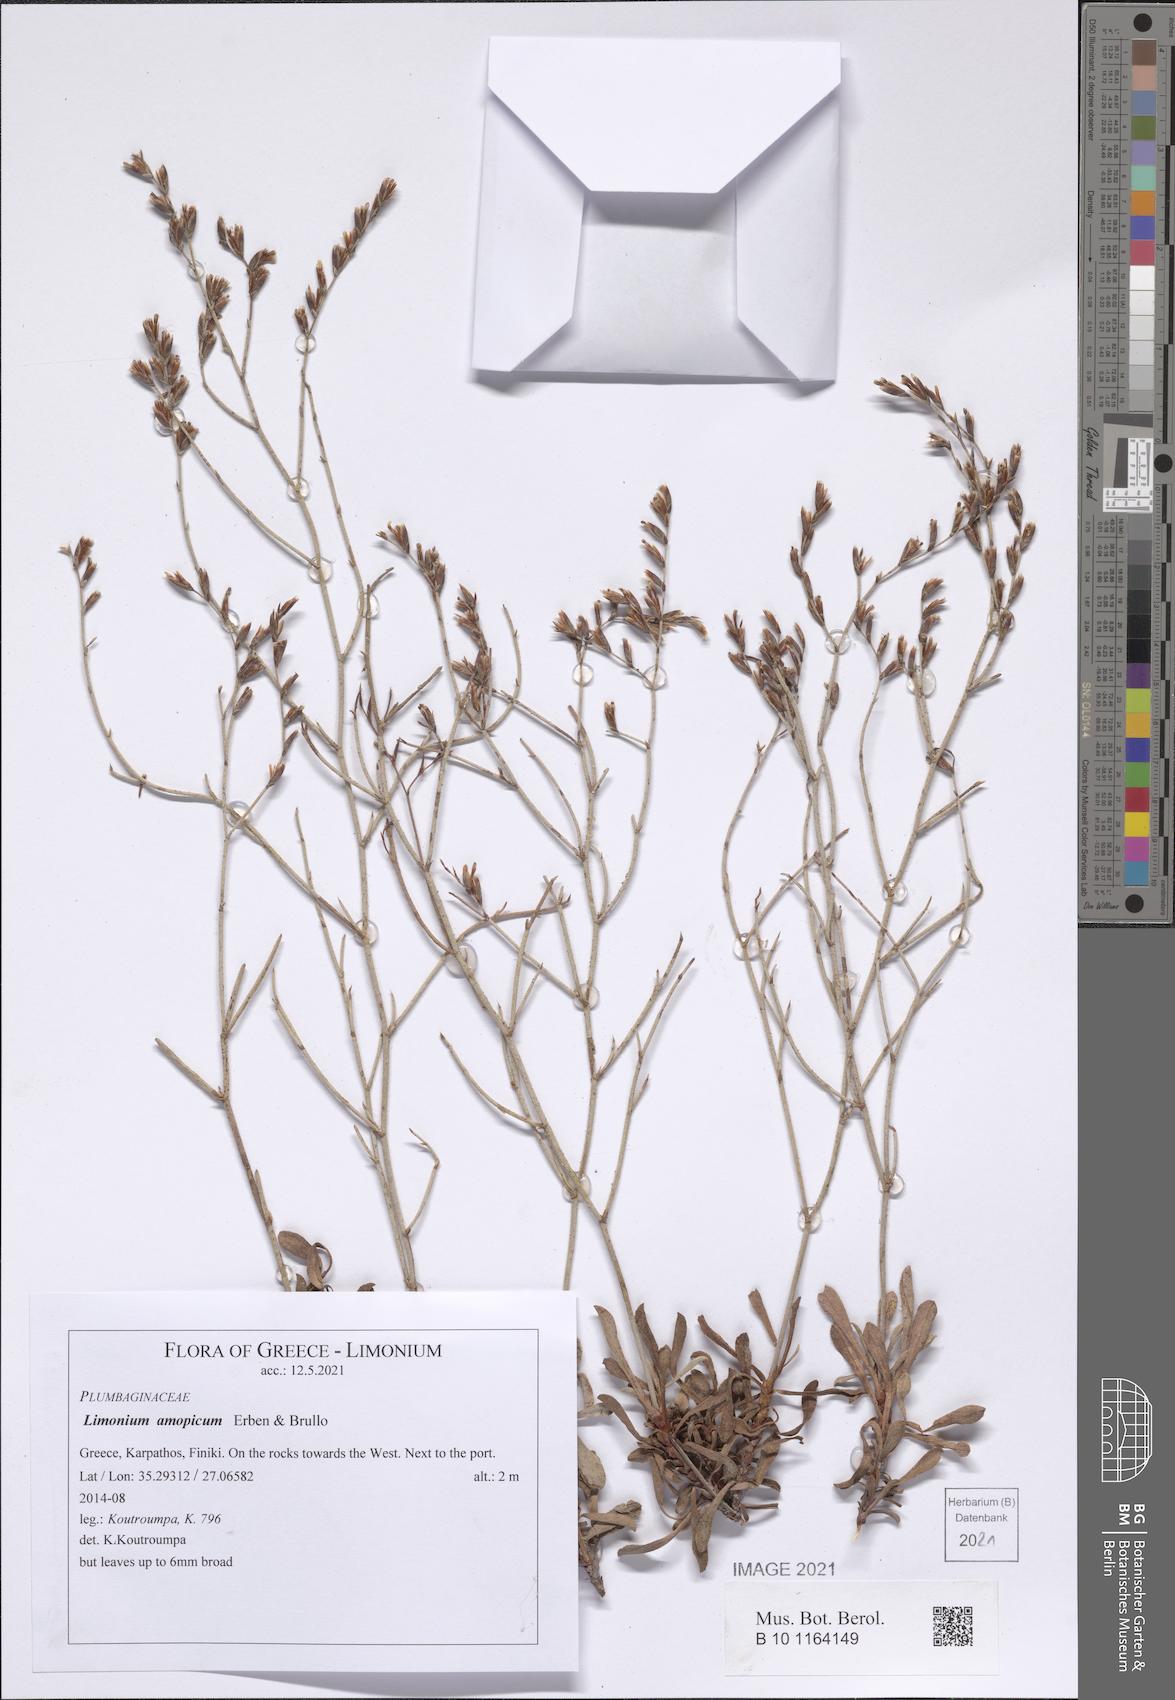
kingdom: Plantae
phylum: Tracheophyta
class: Magnoliopsida
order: Caryophyllales
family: Plumbaginaceae
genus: Limonium
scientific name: Limonium amopicum
